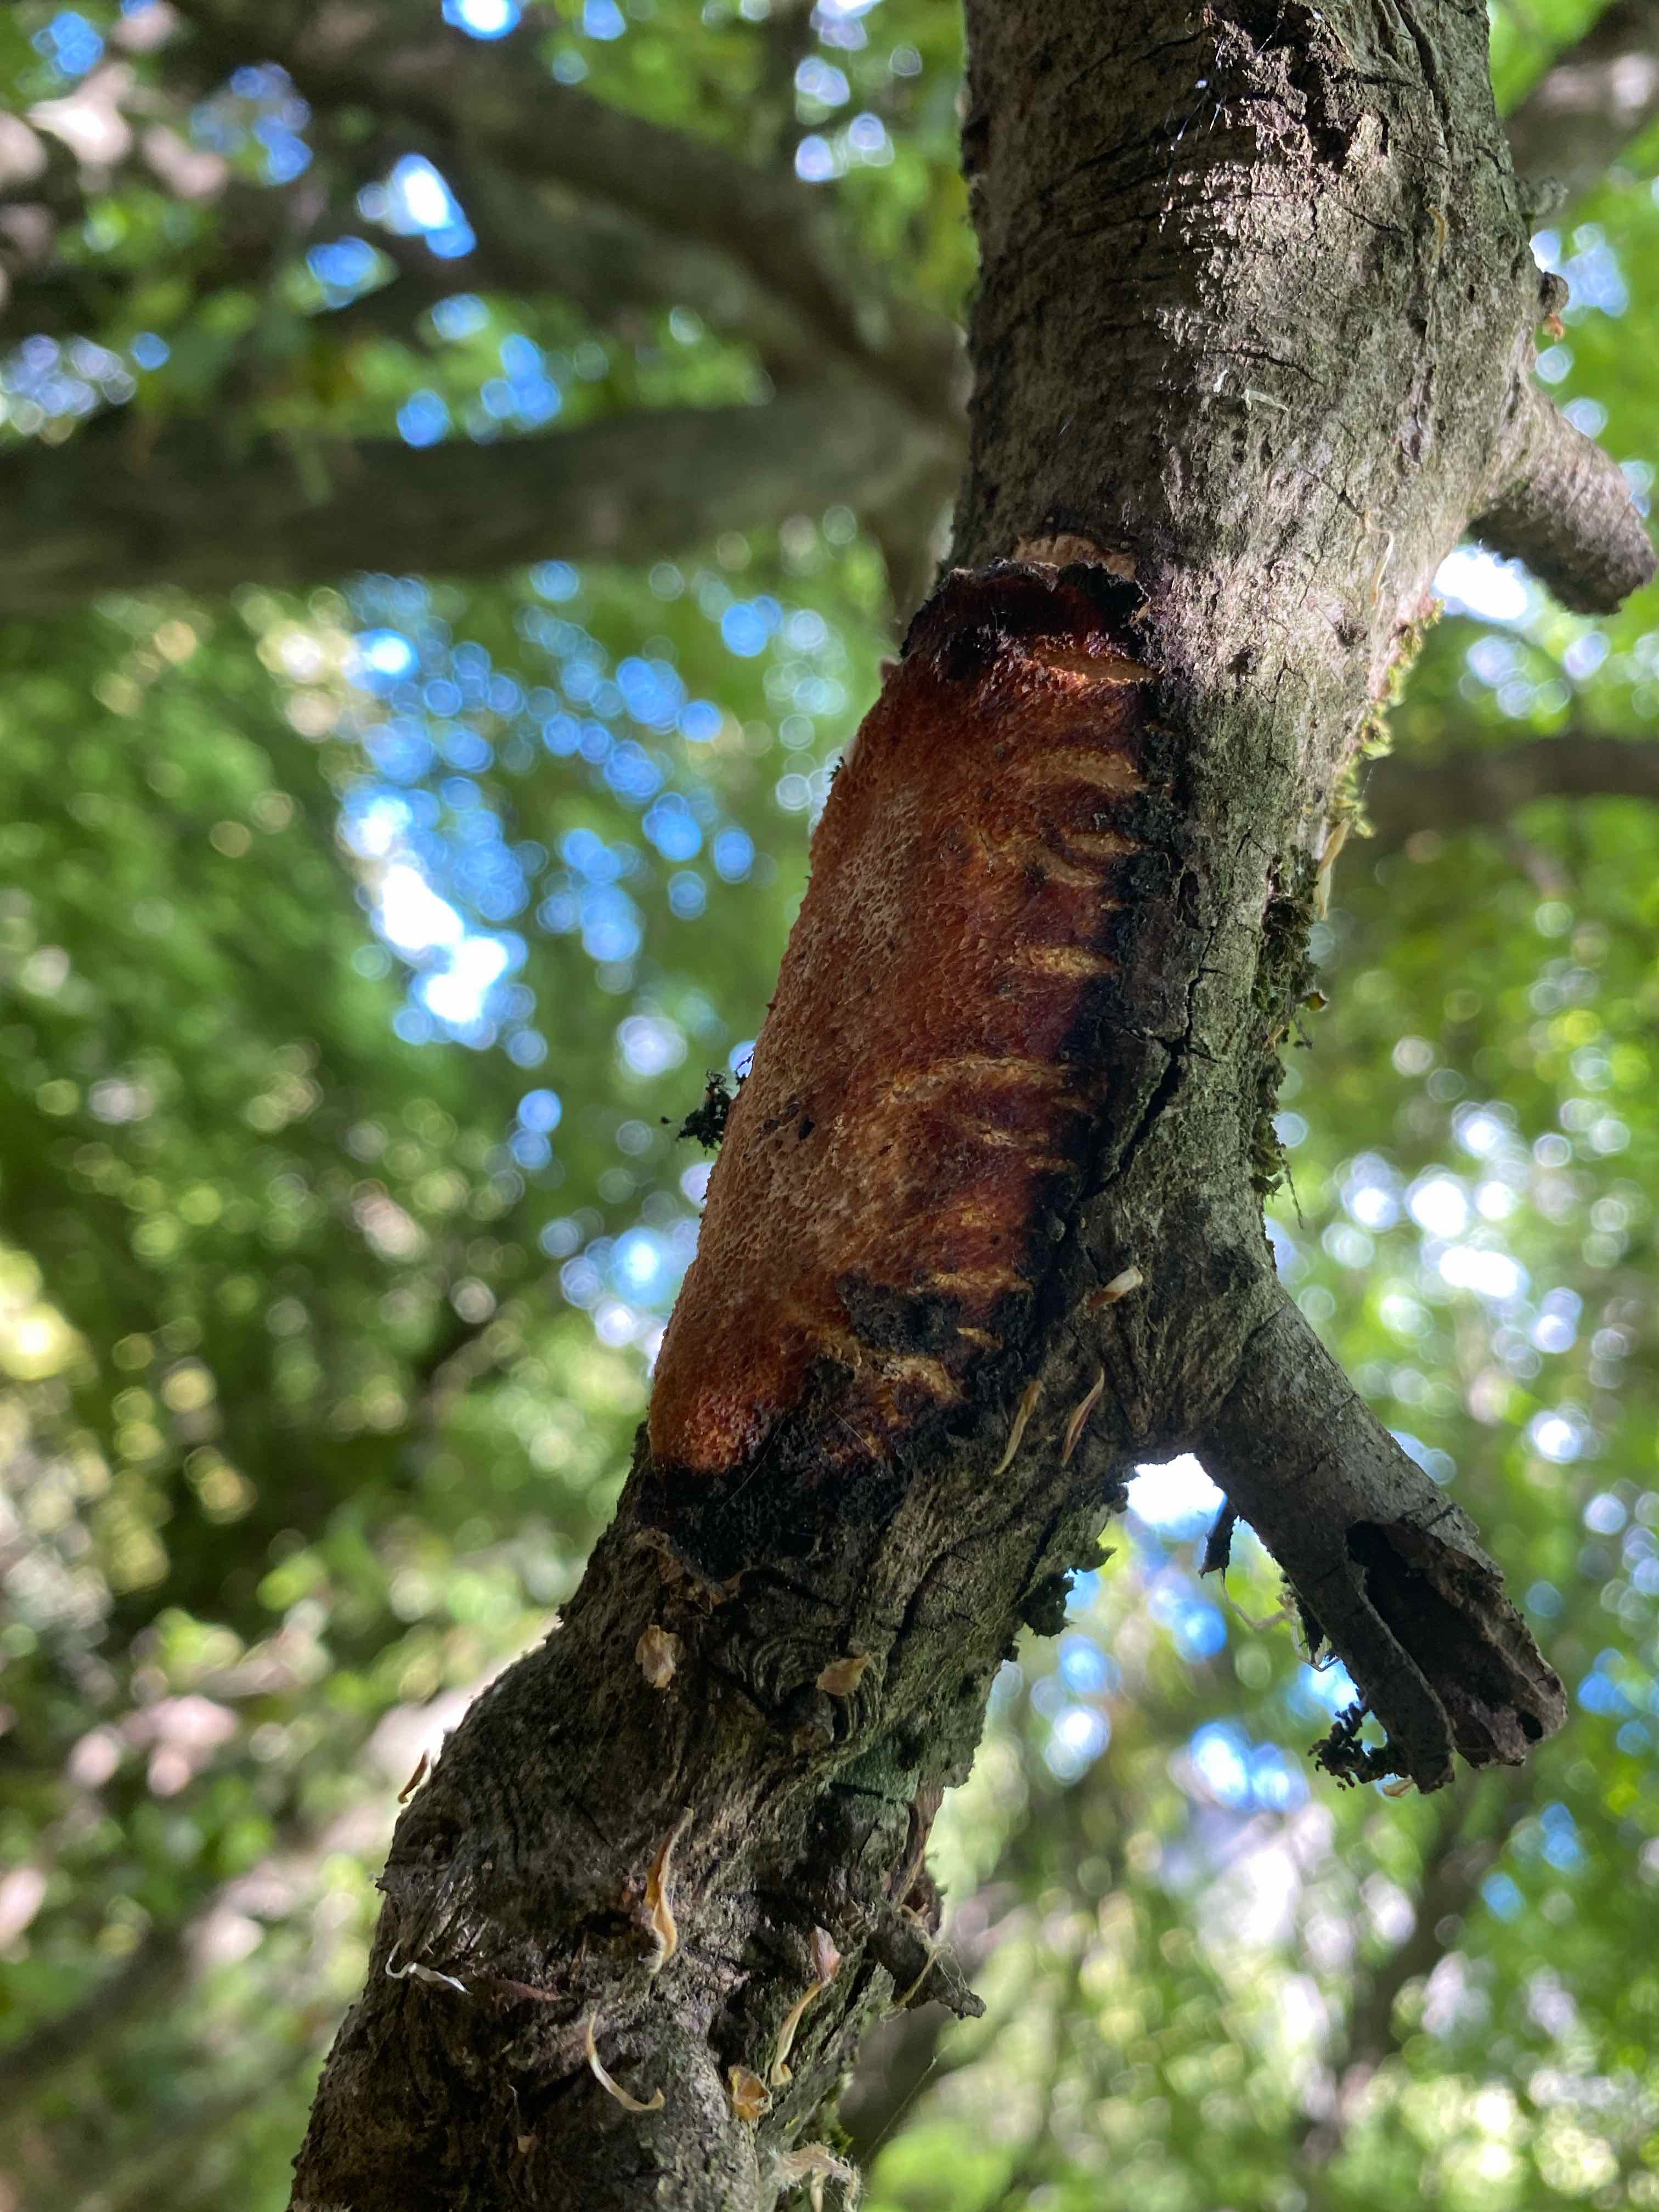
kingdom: Fungi
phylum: Basidiomycota
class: Agaricomycetes
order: Polyporales
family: Polyporaceae
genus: Szczepkamyces
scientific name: Szczepkamyces campestris
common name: hasselporesvamp
